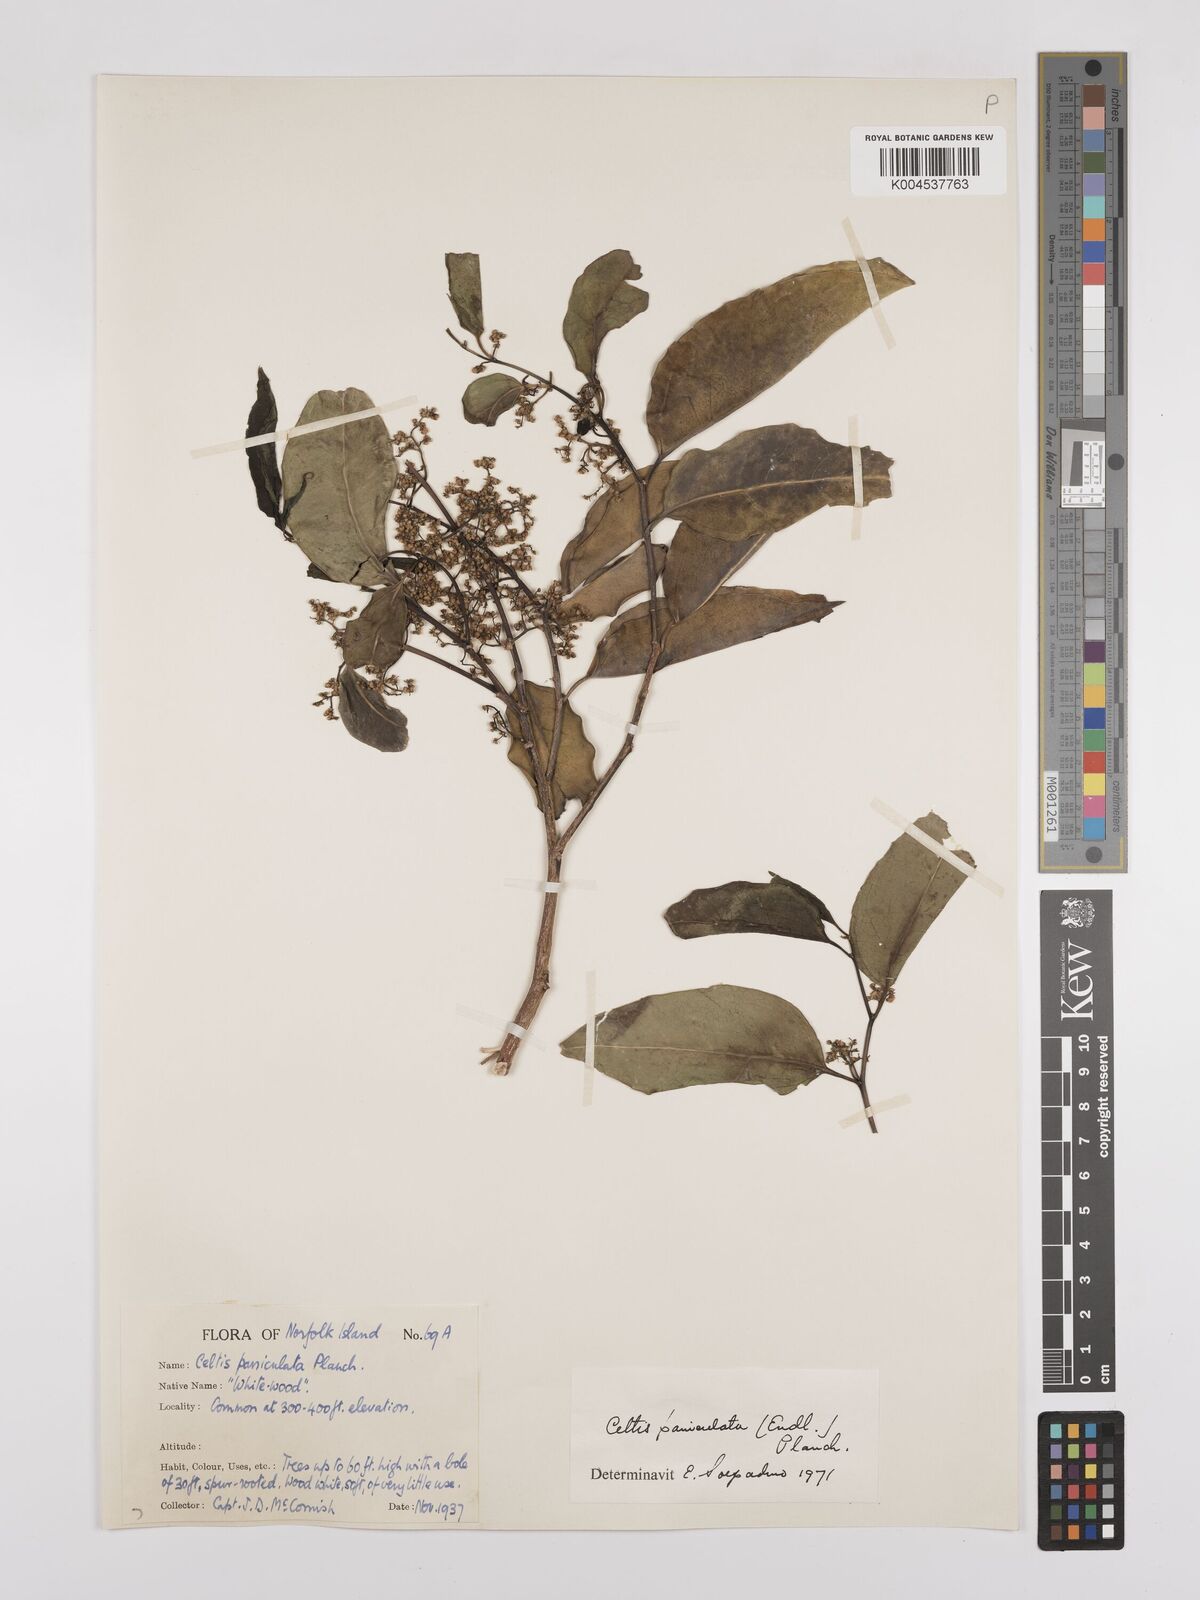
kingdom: Plantae
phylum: Tracheophyta
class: Magnoliopsida
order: Rosales
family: Cannabaceae
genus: Celtis
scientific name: Celtis paniculata
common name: Silky celtis
